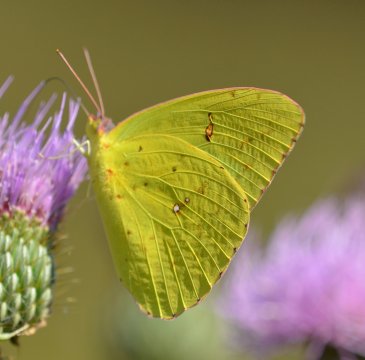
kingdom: Animalia
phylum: Arthropoda
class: Insecta
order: Lepidoptera
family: Pieridae
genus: Phoebis
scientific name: Phoebis sennae
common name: Cloudless Sulphur
